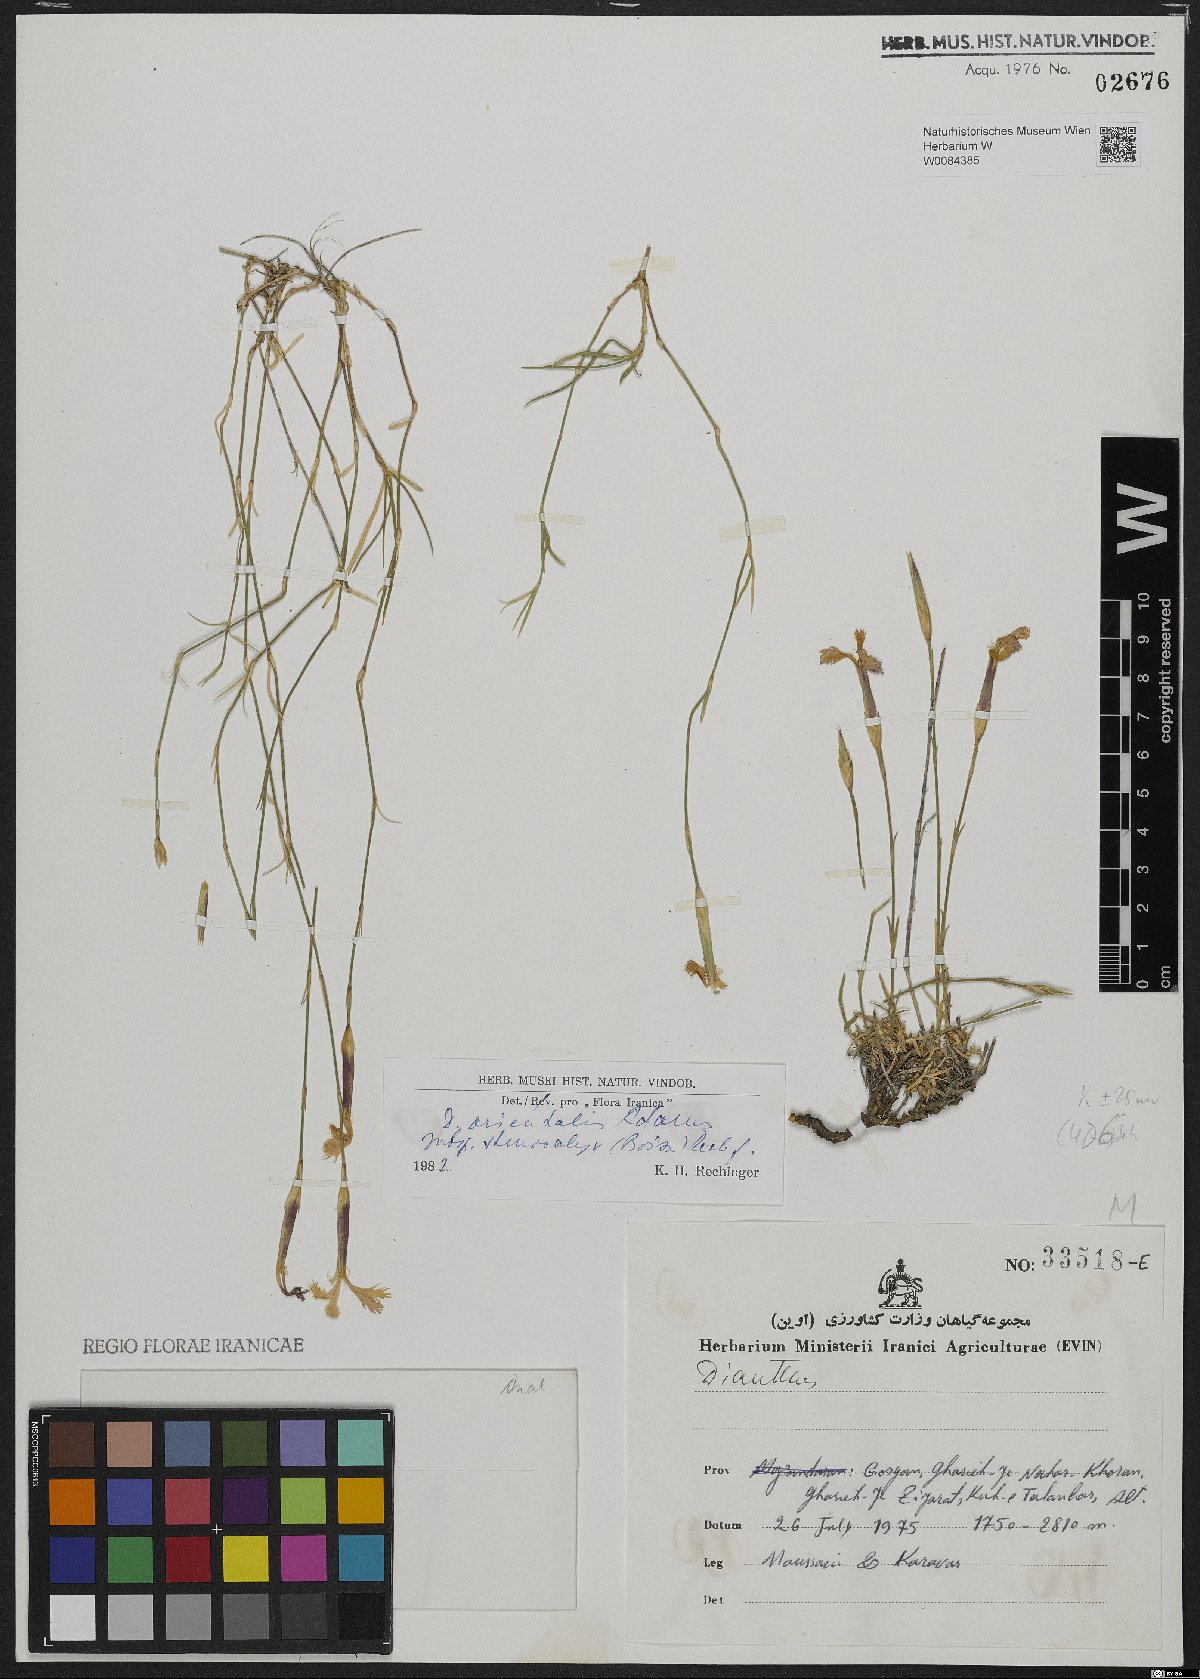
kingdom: Plantae
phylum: Tracheophyta
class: Magnoliopsida
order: Caryophyllales
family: Caryophyllaceae
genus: Dianthus
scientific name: Dianthus orientalis
